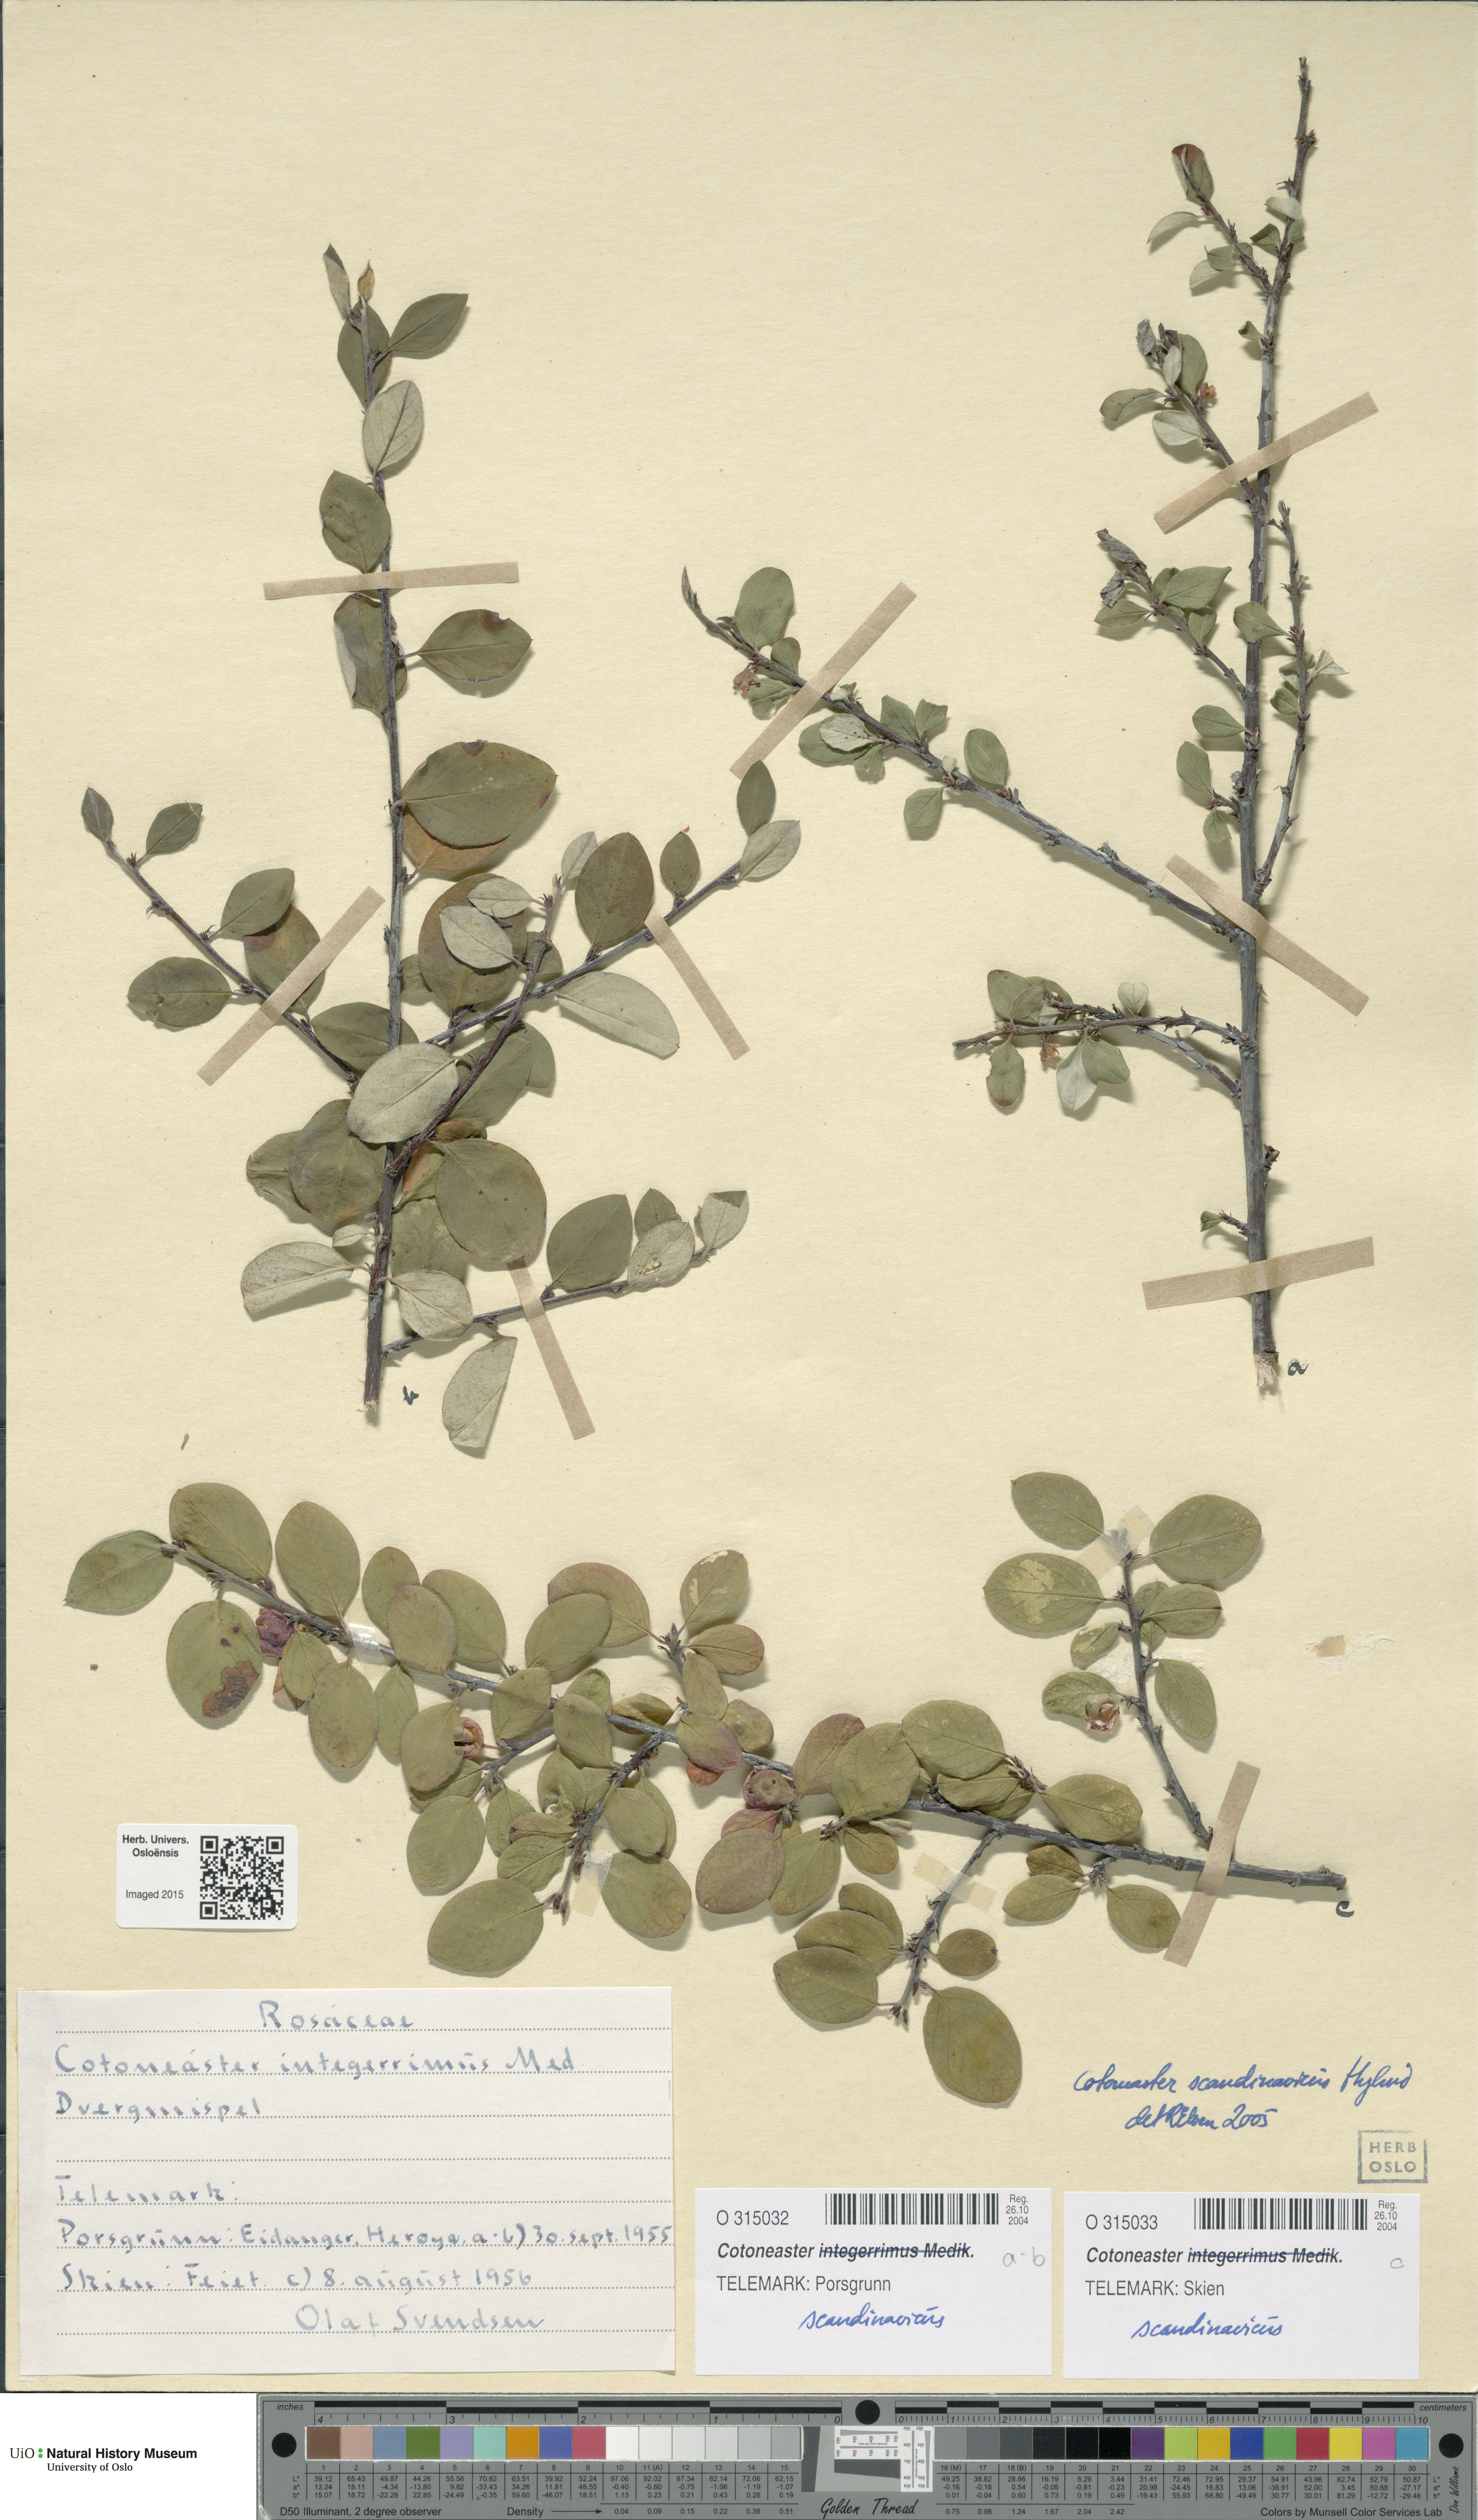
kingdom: Plantae
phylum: Tracheophyta
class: Magnoliopsida
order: Rosales
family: Rosaceae
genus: Cotoneaster
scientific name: Cotoneaster integerrimus
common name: Wild cotoneaster
